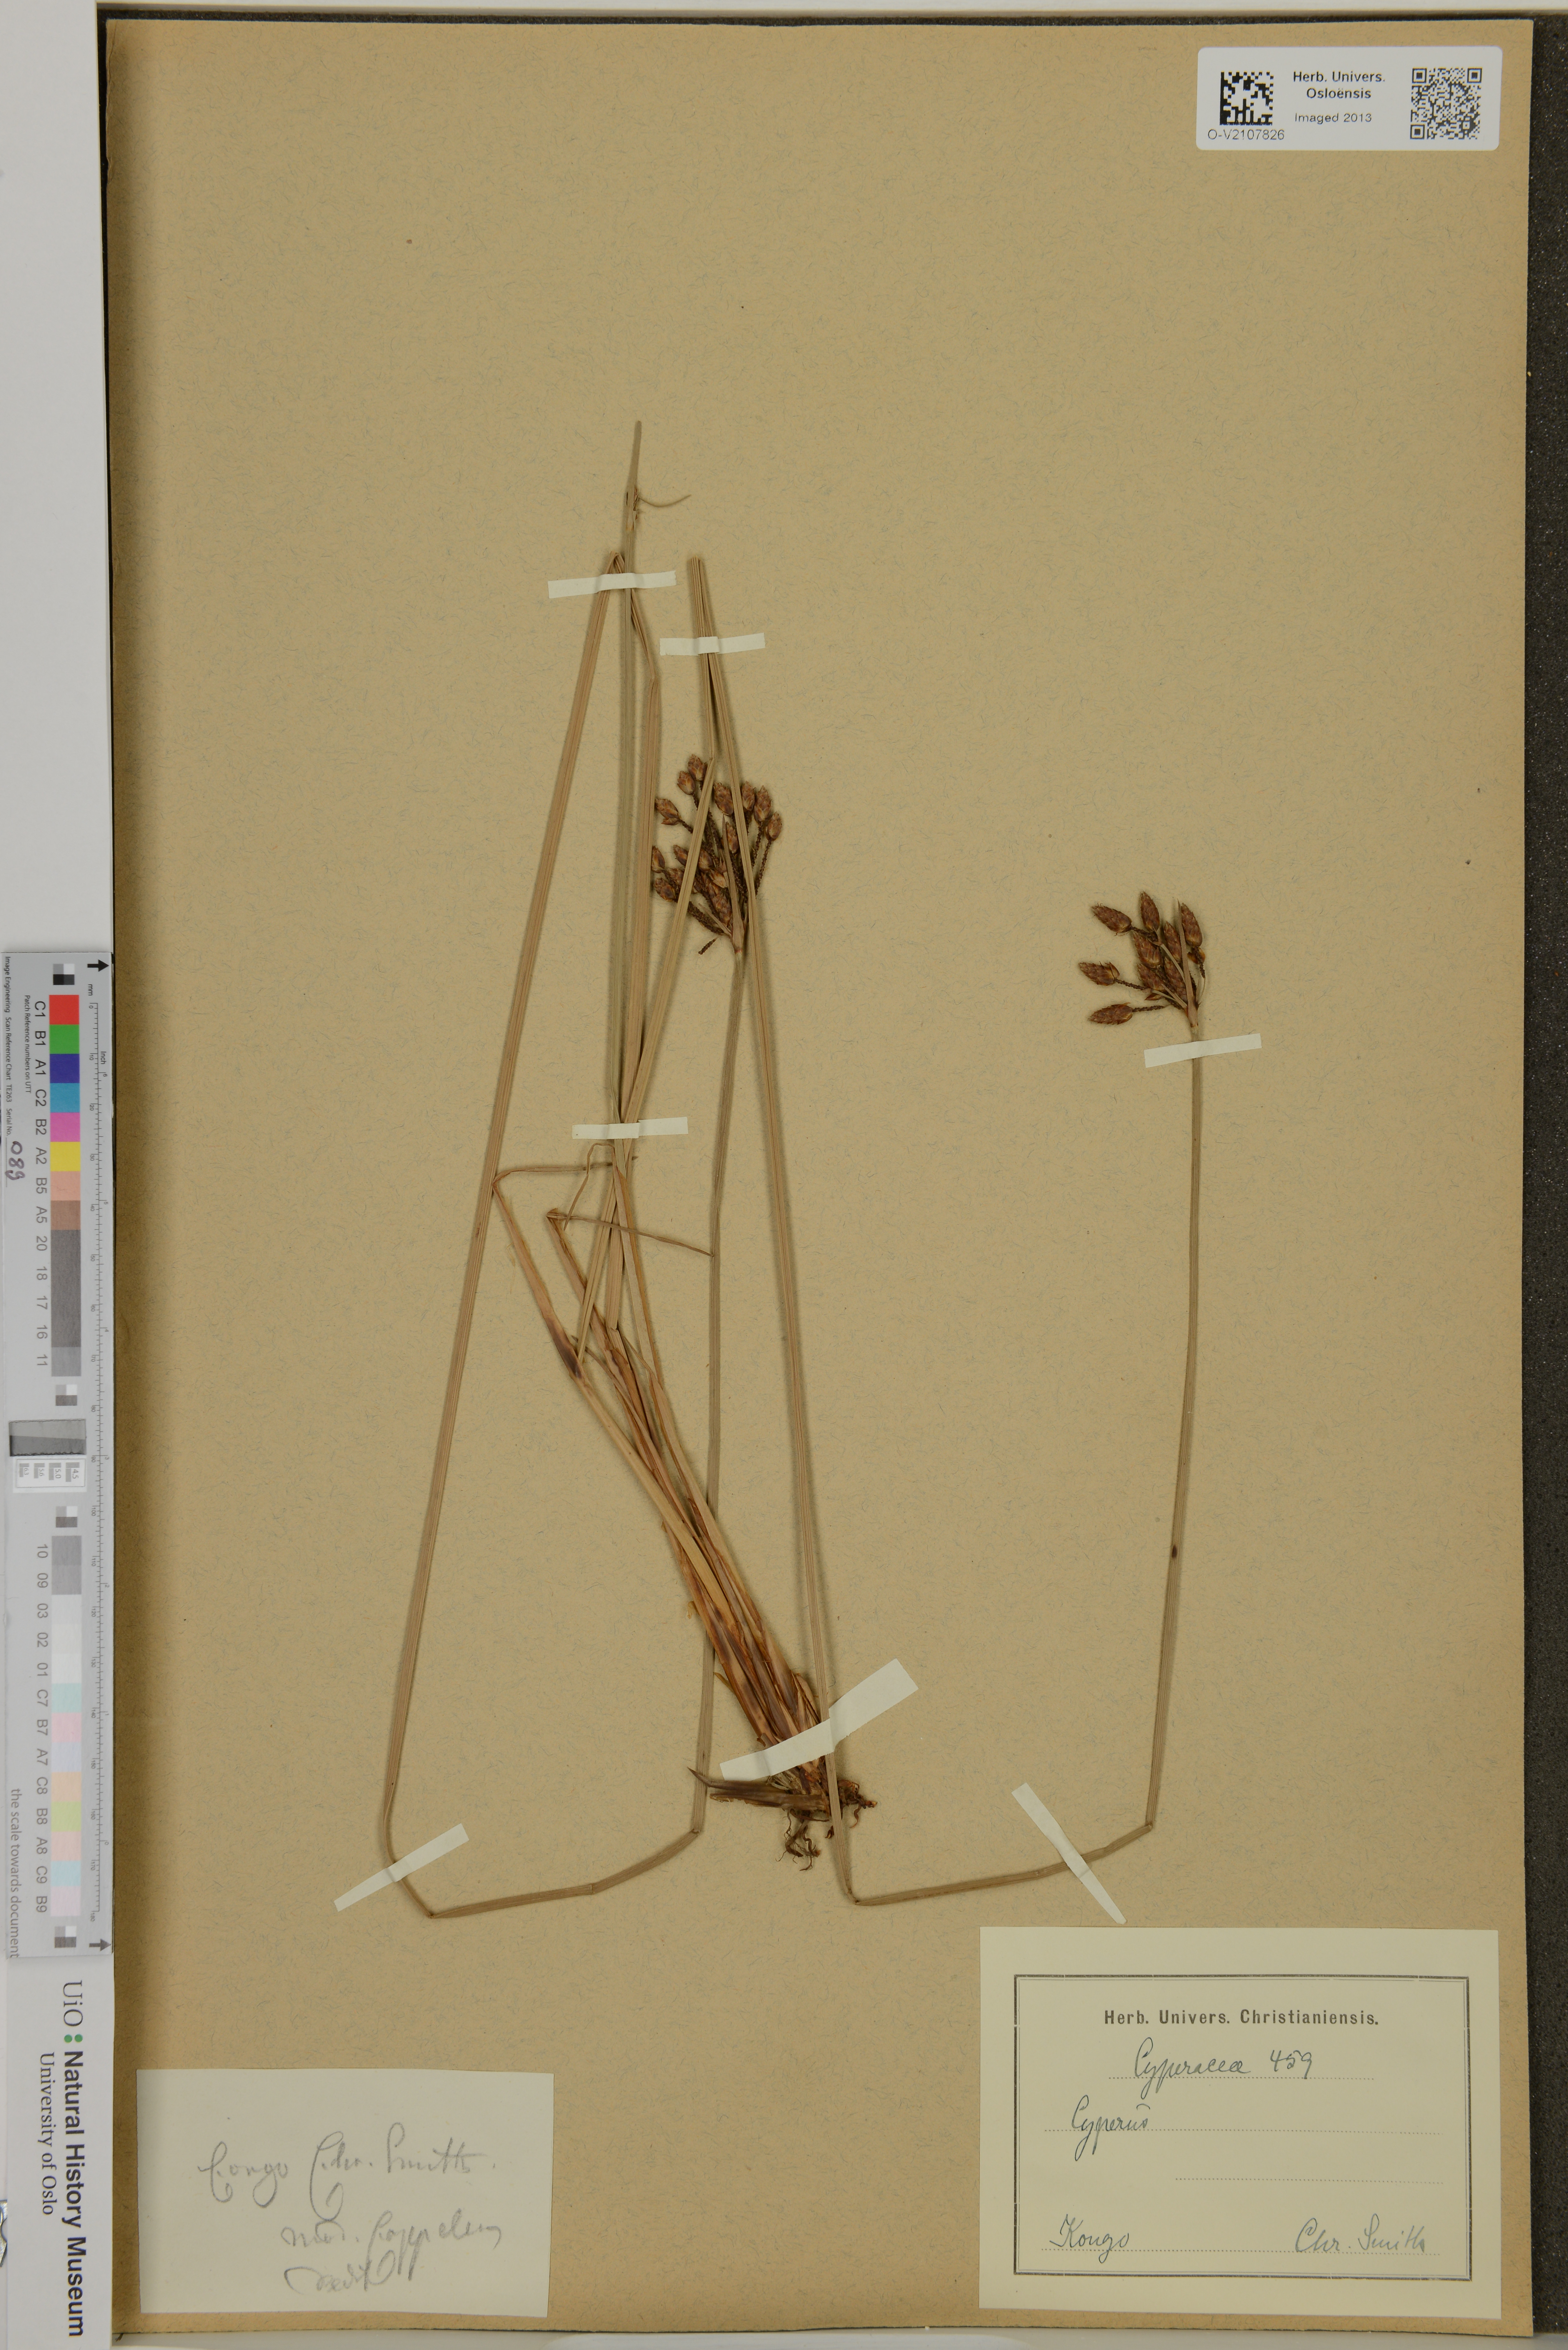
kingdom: Plantae
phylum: Tracheophyta
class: Liliopsida
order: Poales
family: Cyperaceae
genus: Cyperus
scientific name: Cyperus
